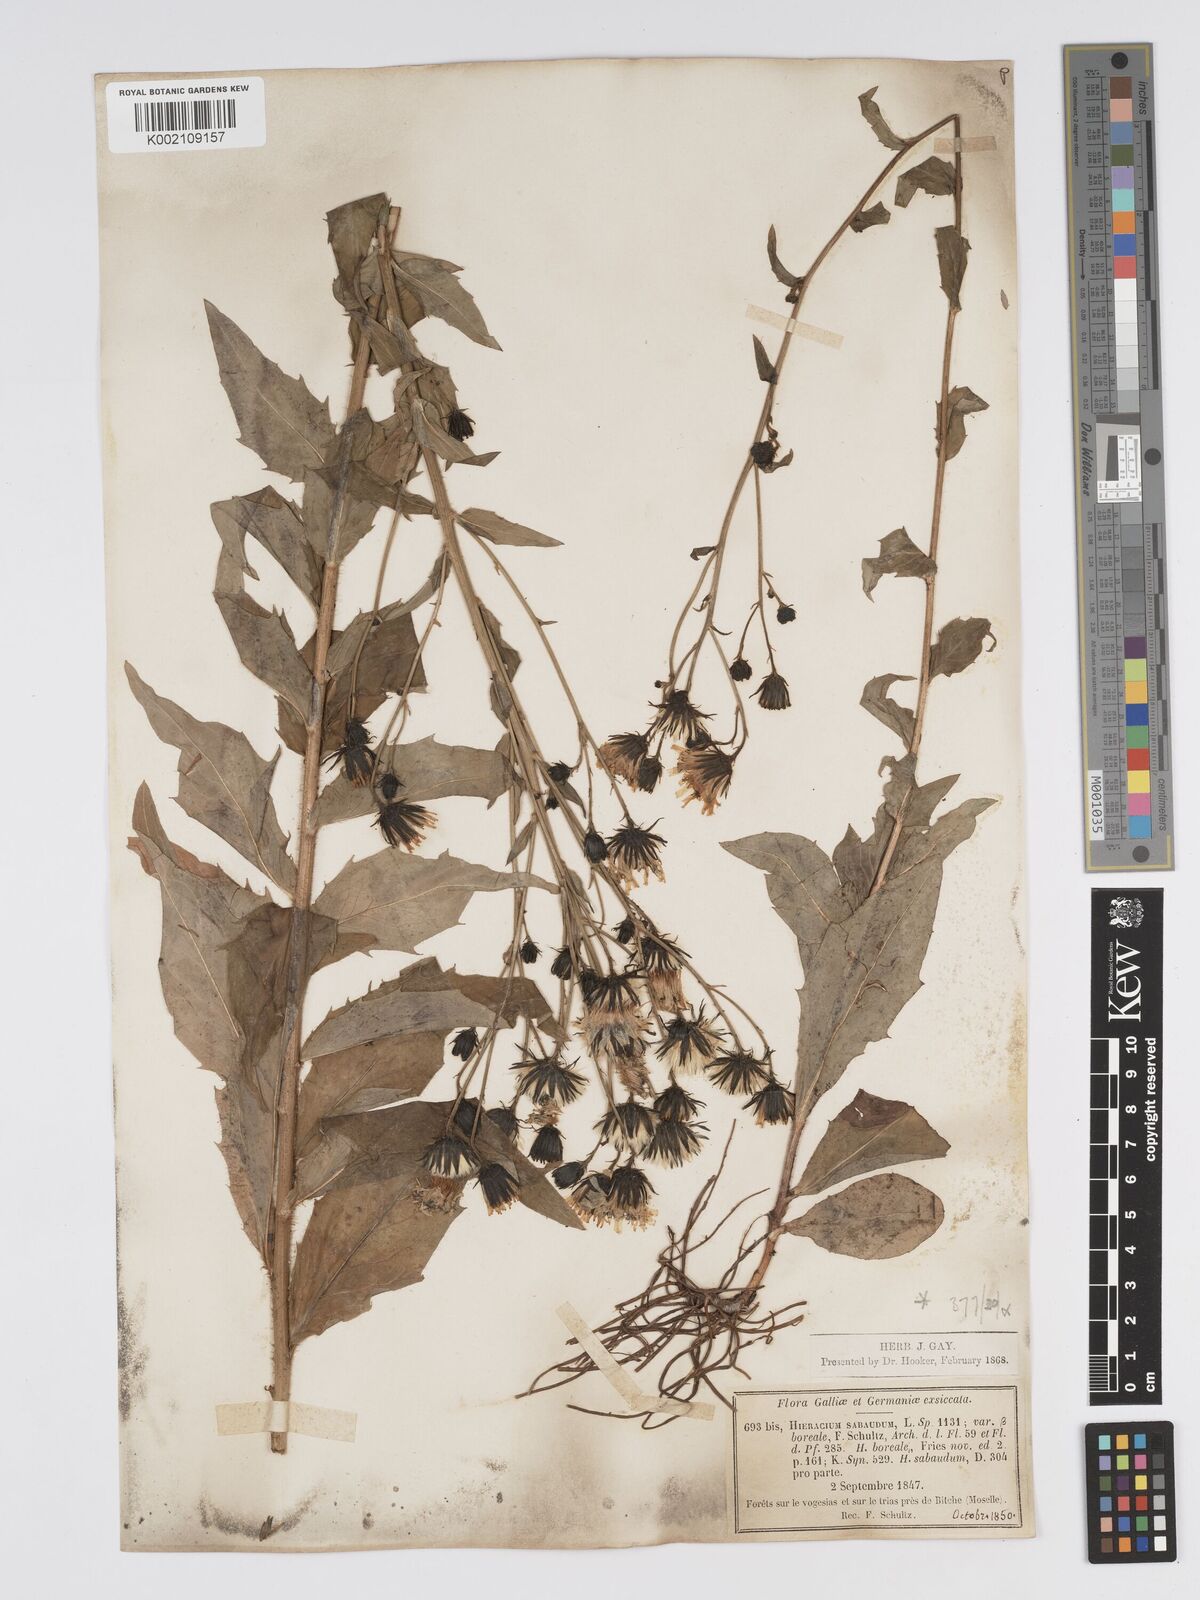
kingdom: Plantae
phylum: Tracheophyta
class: Magnoliopsida
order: Asterales
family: Asteraceae
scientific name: Asteraceae
